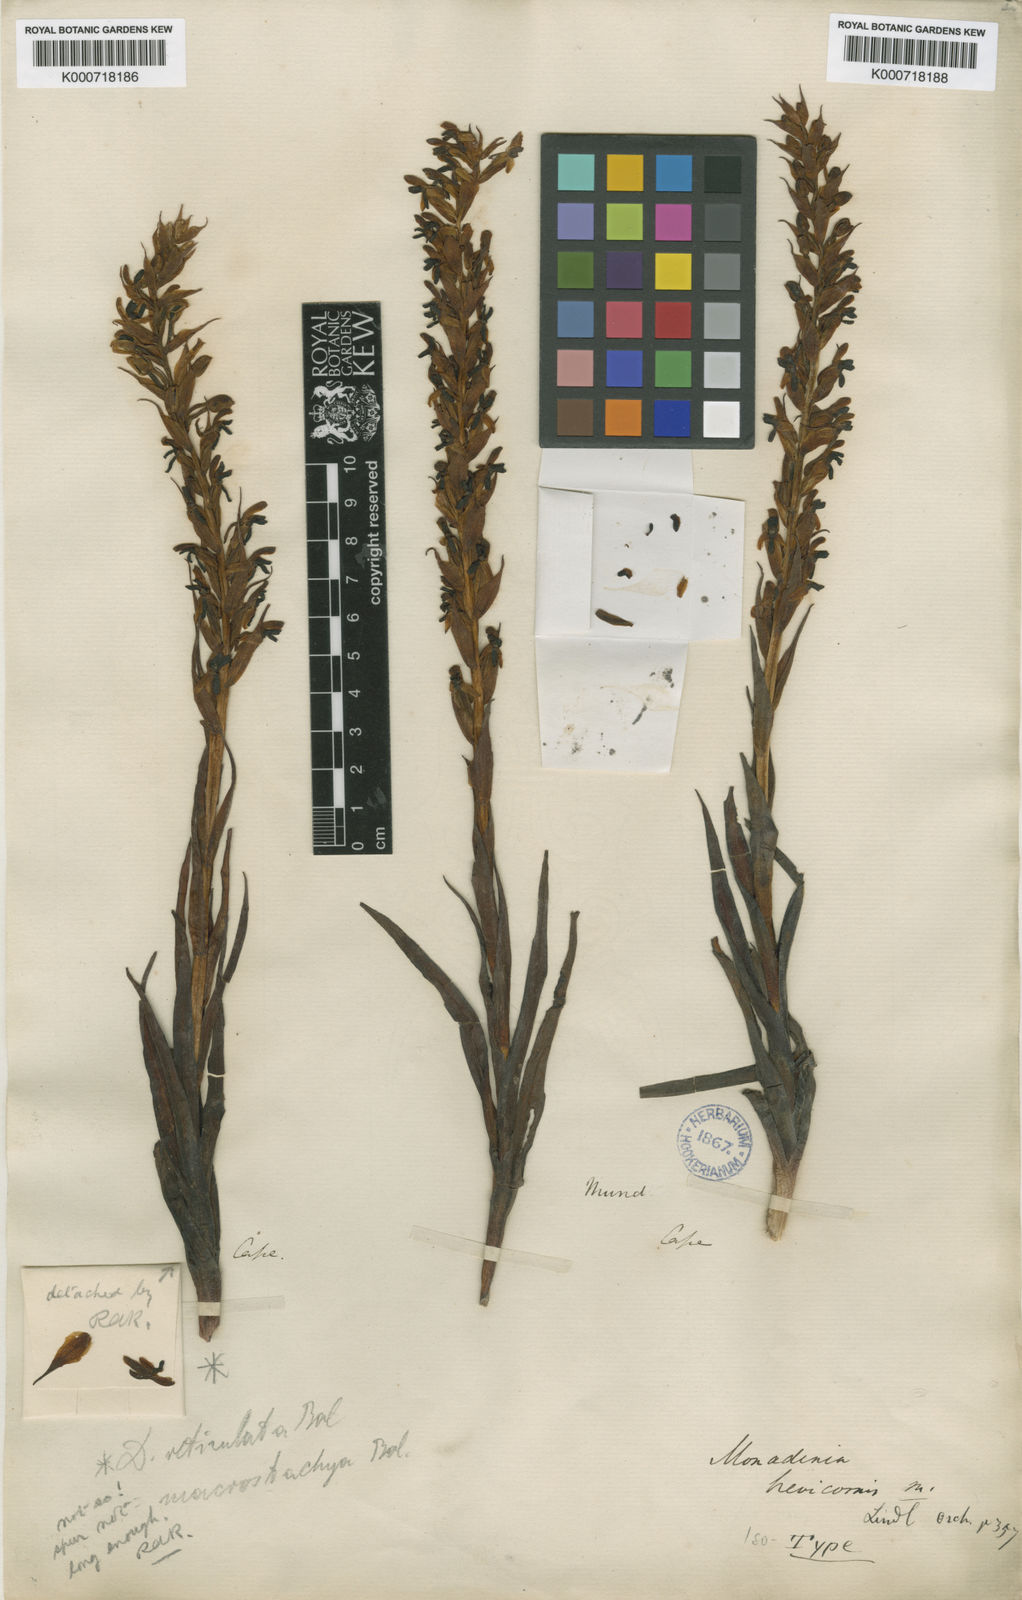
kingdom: Plantae
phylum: Tracheophyta
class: Liliopsida
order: Asparagales
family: Orchidaceae
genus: Disa
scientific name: Disa brevicornis
